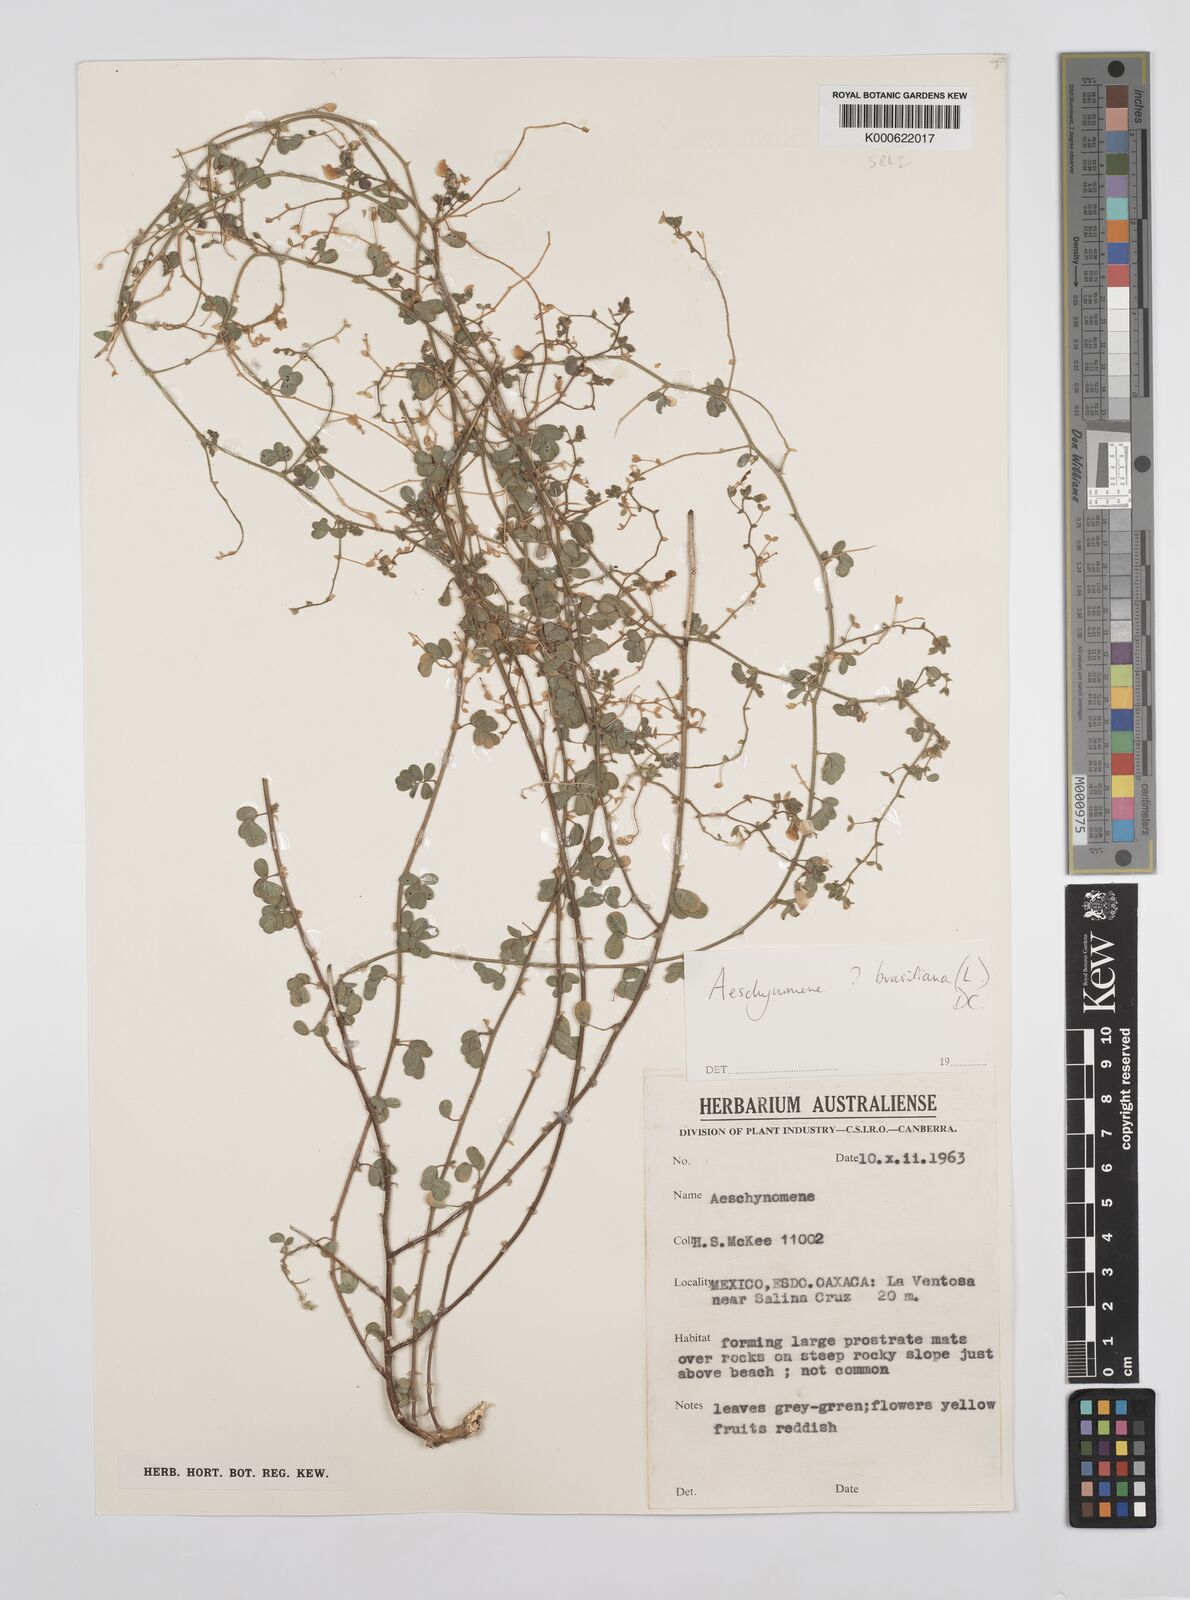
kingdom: Plantae
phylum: Tracheophyta
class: Magnoliopsida
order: Fabales
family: Fabaceae
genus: Ctenodon
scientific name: Ctenodon brasilianus
